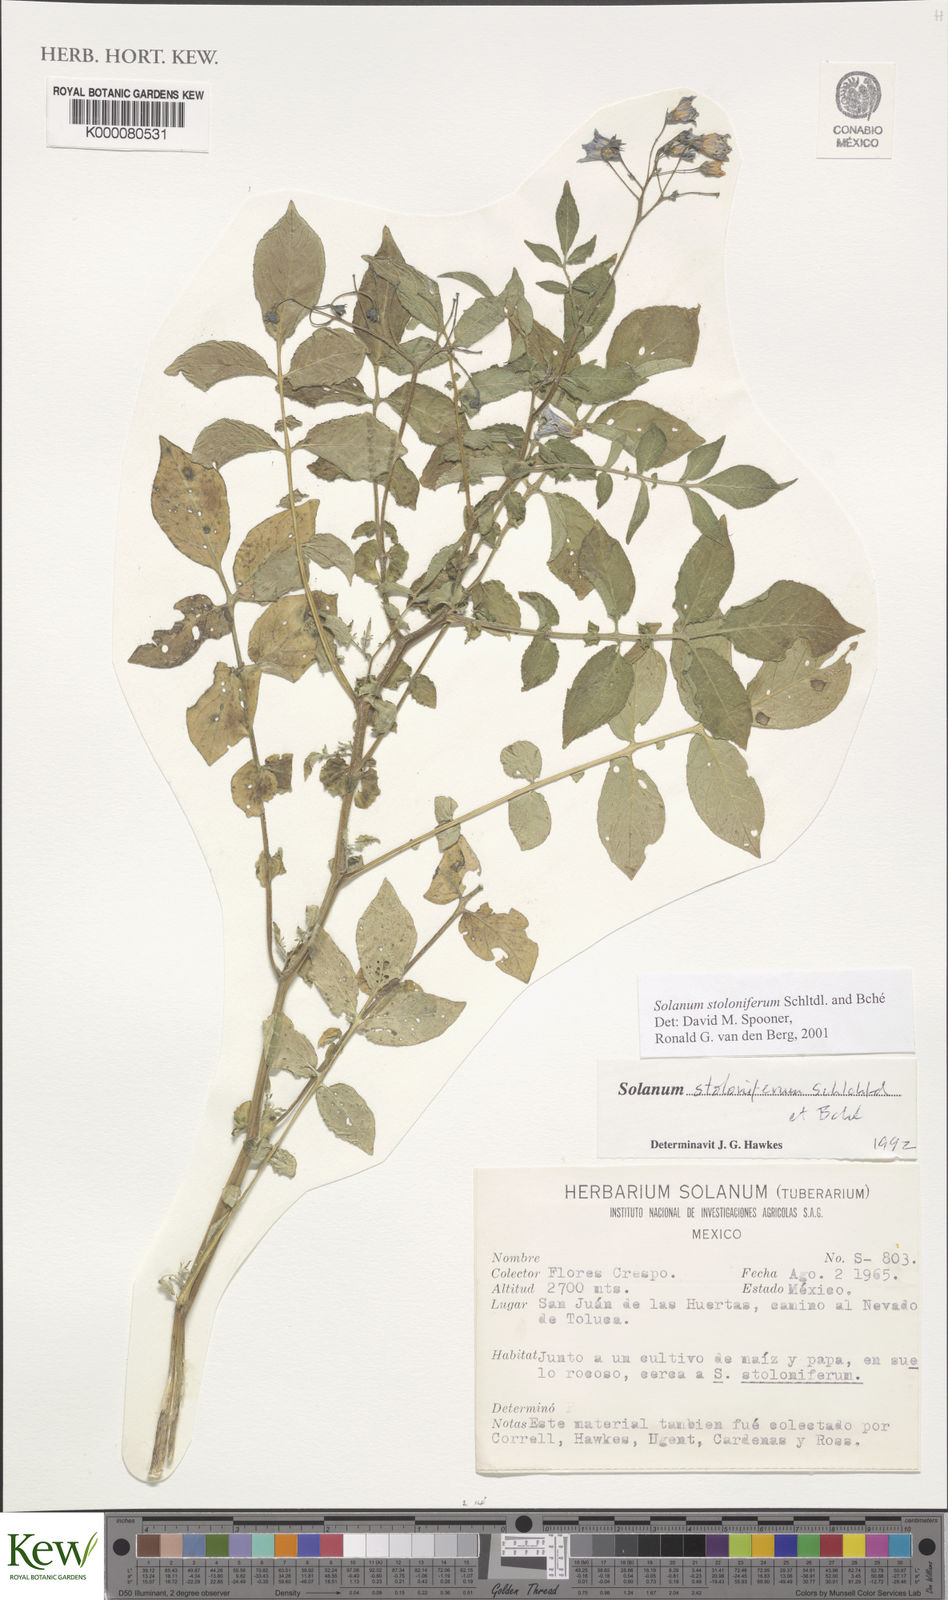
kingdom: Plantae
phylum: Tracheophyta
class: Magnoliopsida
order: Solanales
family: Solanaceae
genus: Solanum
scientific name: Solanum stoloniferum
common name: Fendler's nighshade
